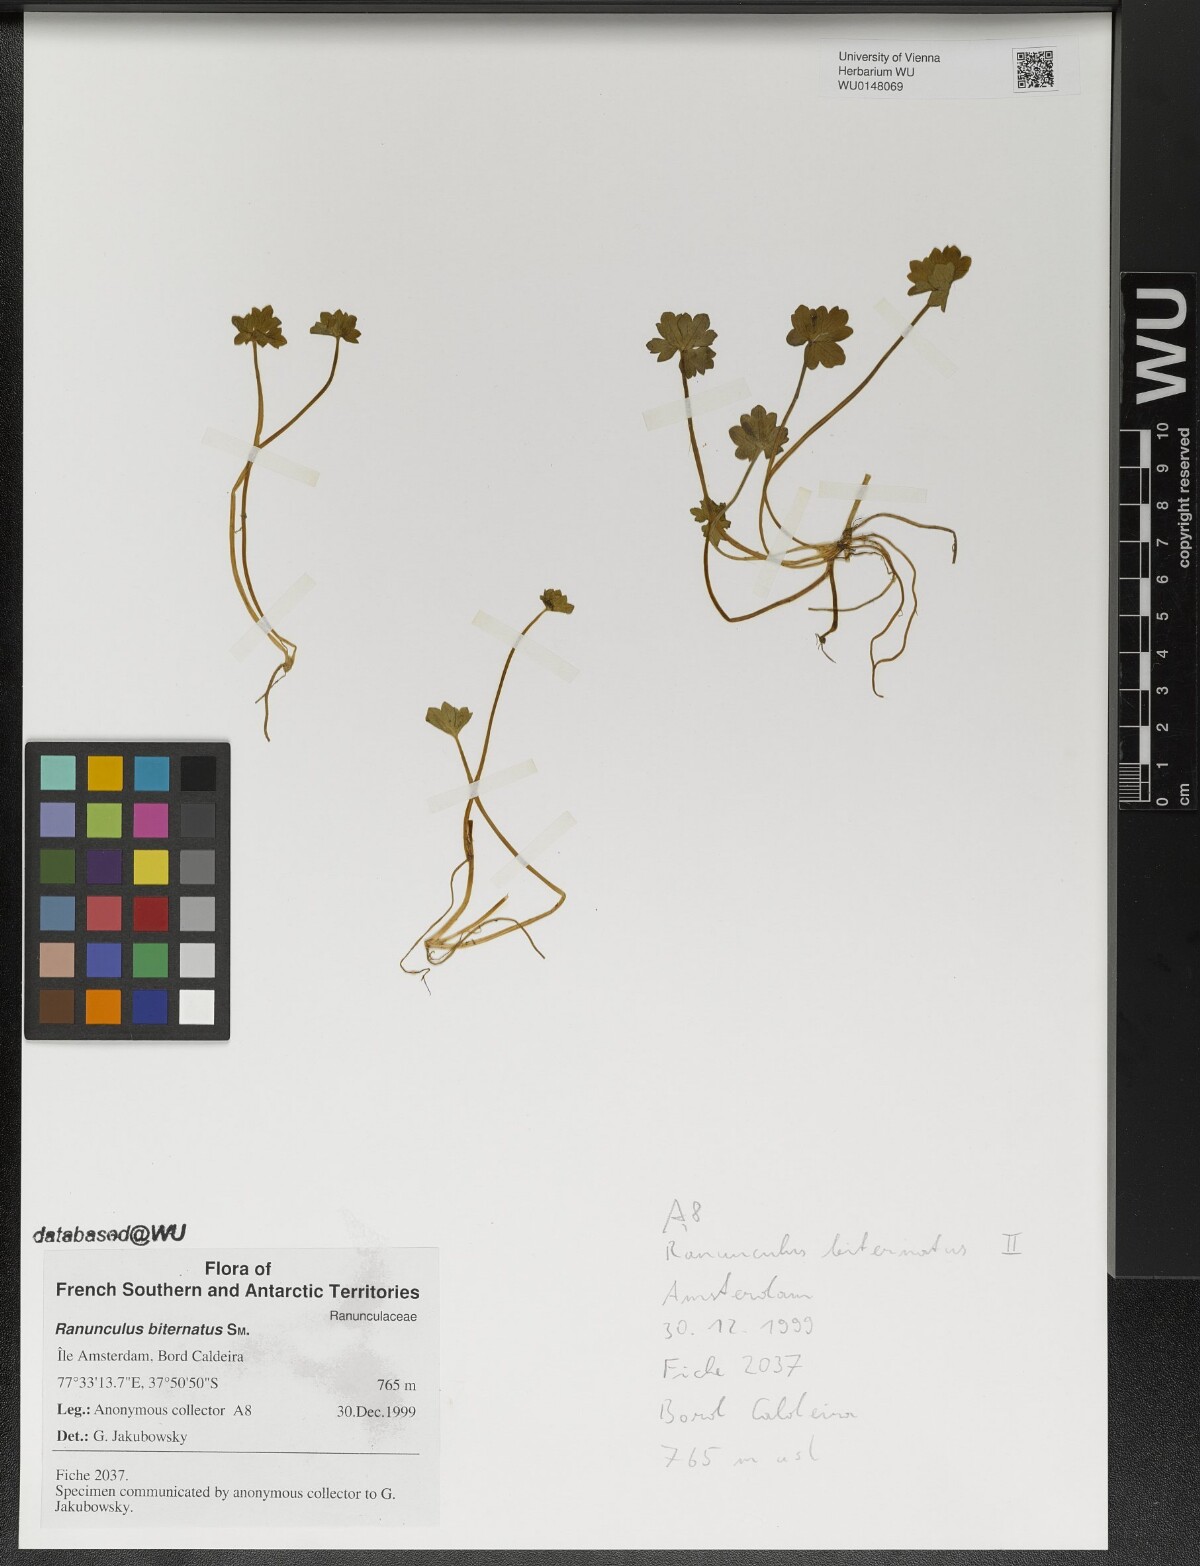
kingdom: Plantae
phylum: Tracheophyta
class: Magnoliopsida
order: Ranunculales
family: Ranunculaceae
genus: Ranunculus
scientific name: Ranunculus biternatus
